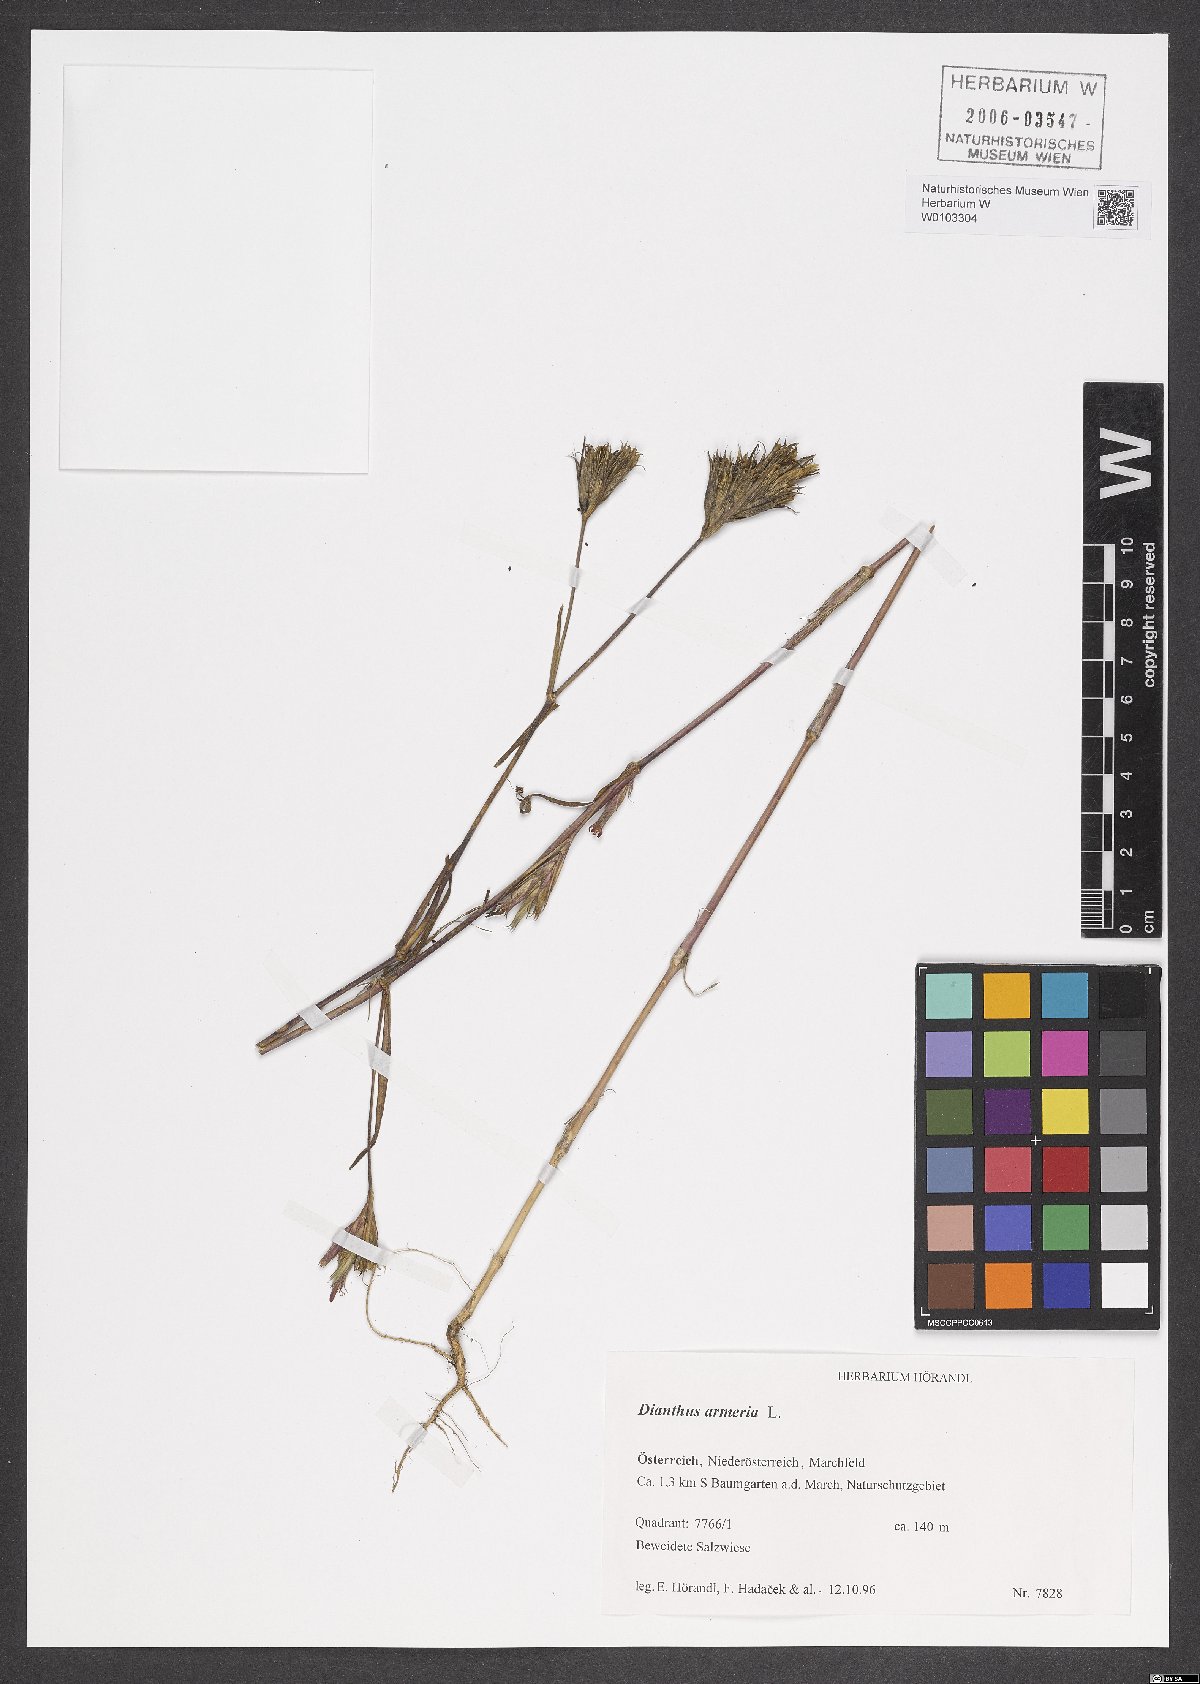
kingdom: Plantae
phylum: Tracheophyta
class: Magnoliopsida
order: Caryophyllales
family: Caryophyllaceae
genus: Dianthus
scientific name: Dianthus armeria
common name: Deptford pink
